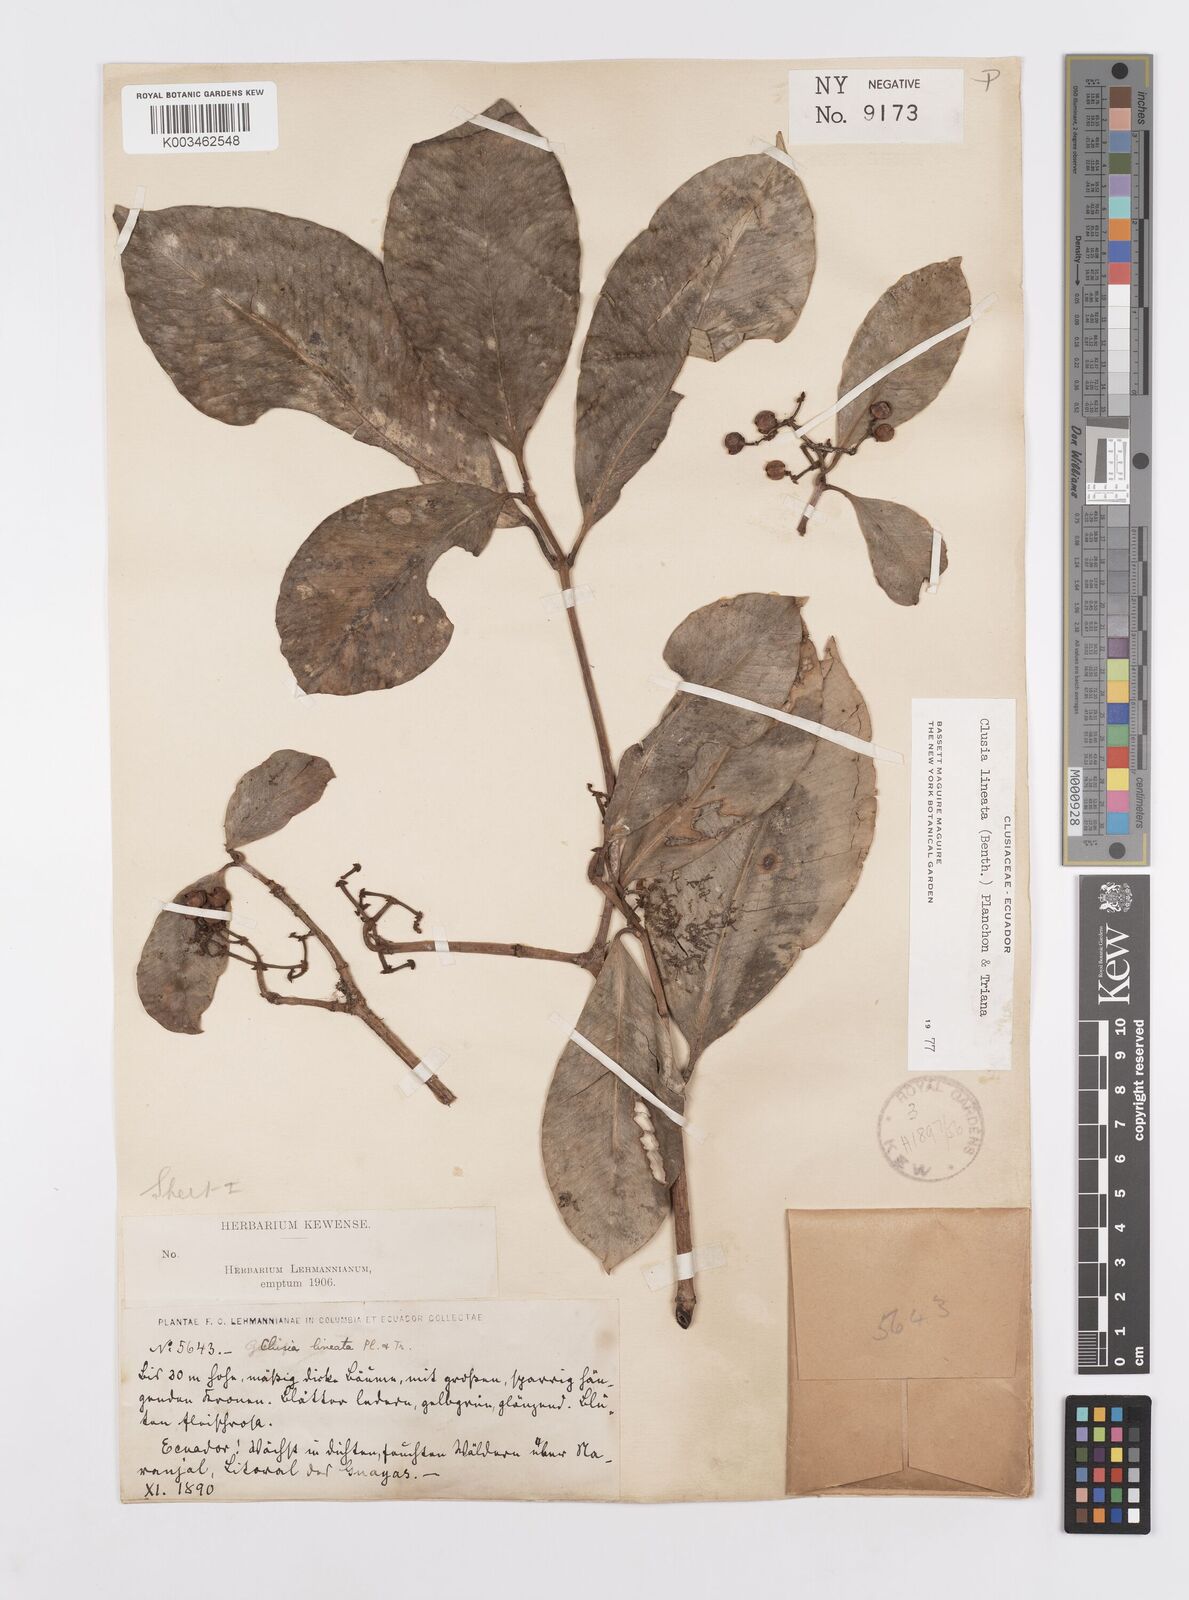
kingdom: Plantae
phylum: Tracheophyta
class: Magnoliopsida
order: Malpighiales
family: Clusiaceae
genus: Clusia
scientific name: Clusia lineata
